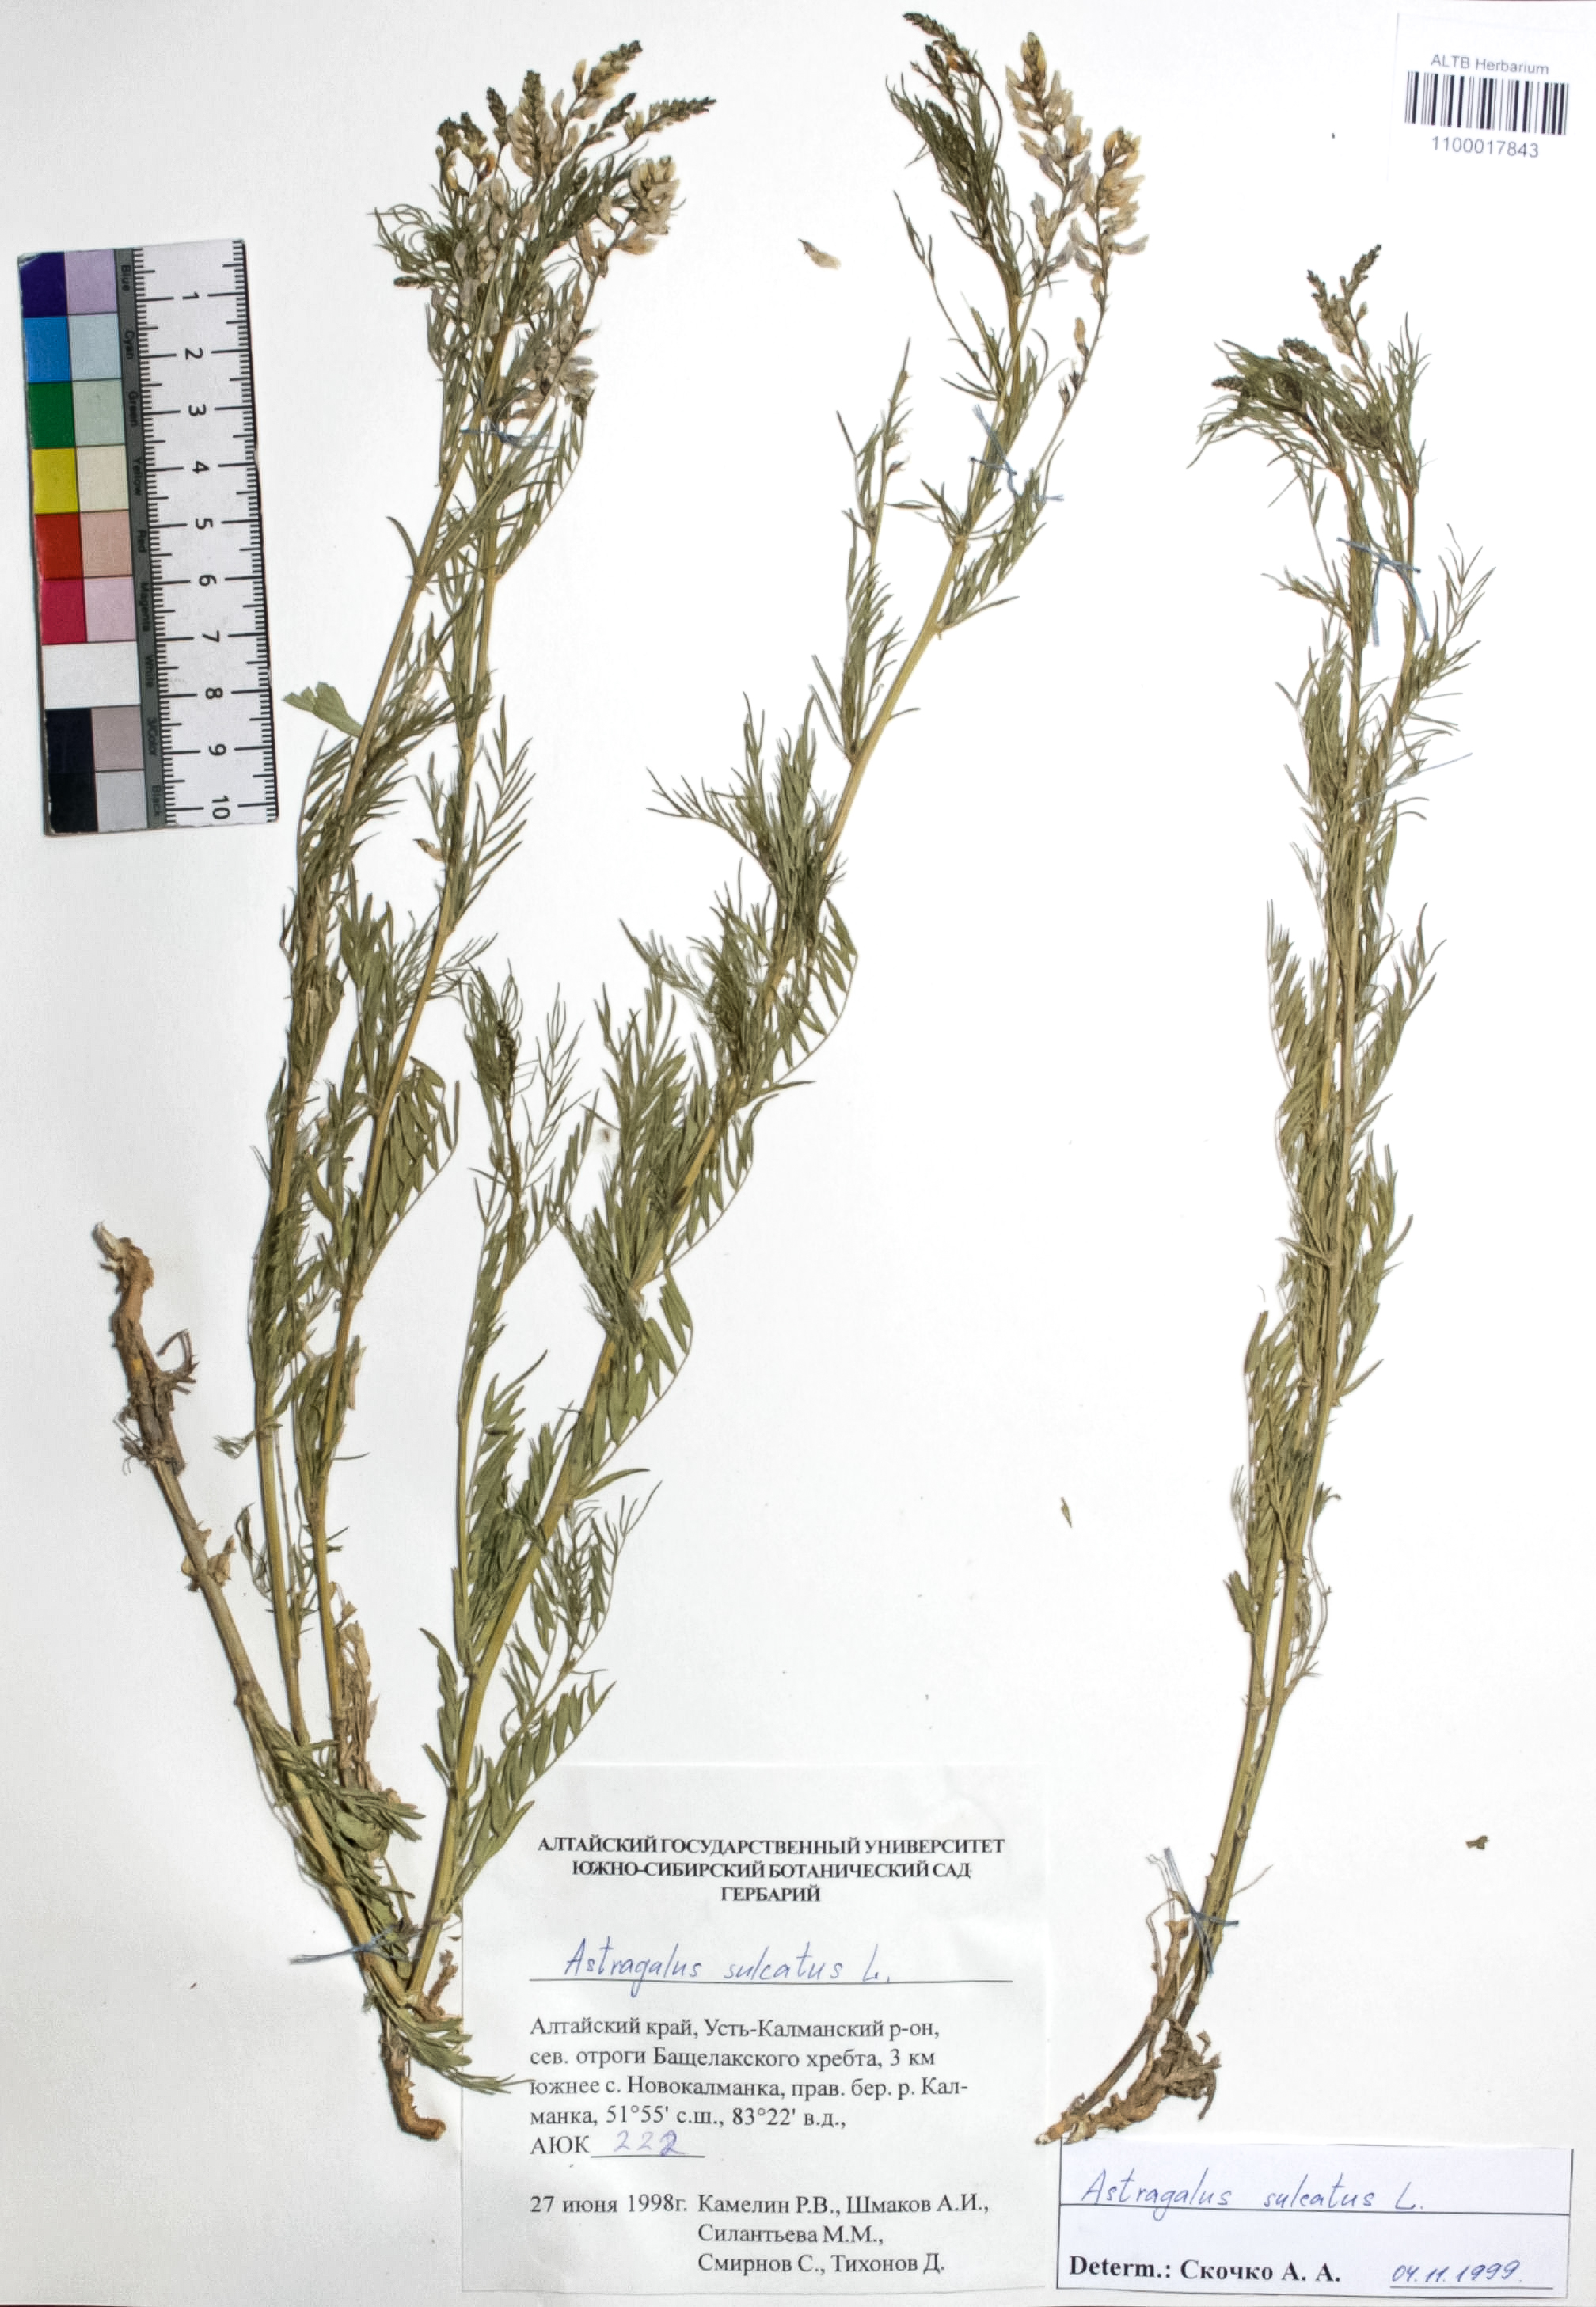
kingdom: Plantae
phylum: Tracheophyta
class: Magnoliopsida
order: Fabales
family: Fabaceae
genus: Astragalus
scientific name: Astragalus sulcatus
